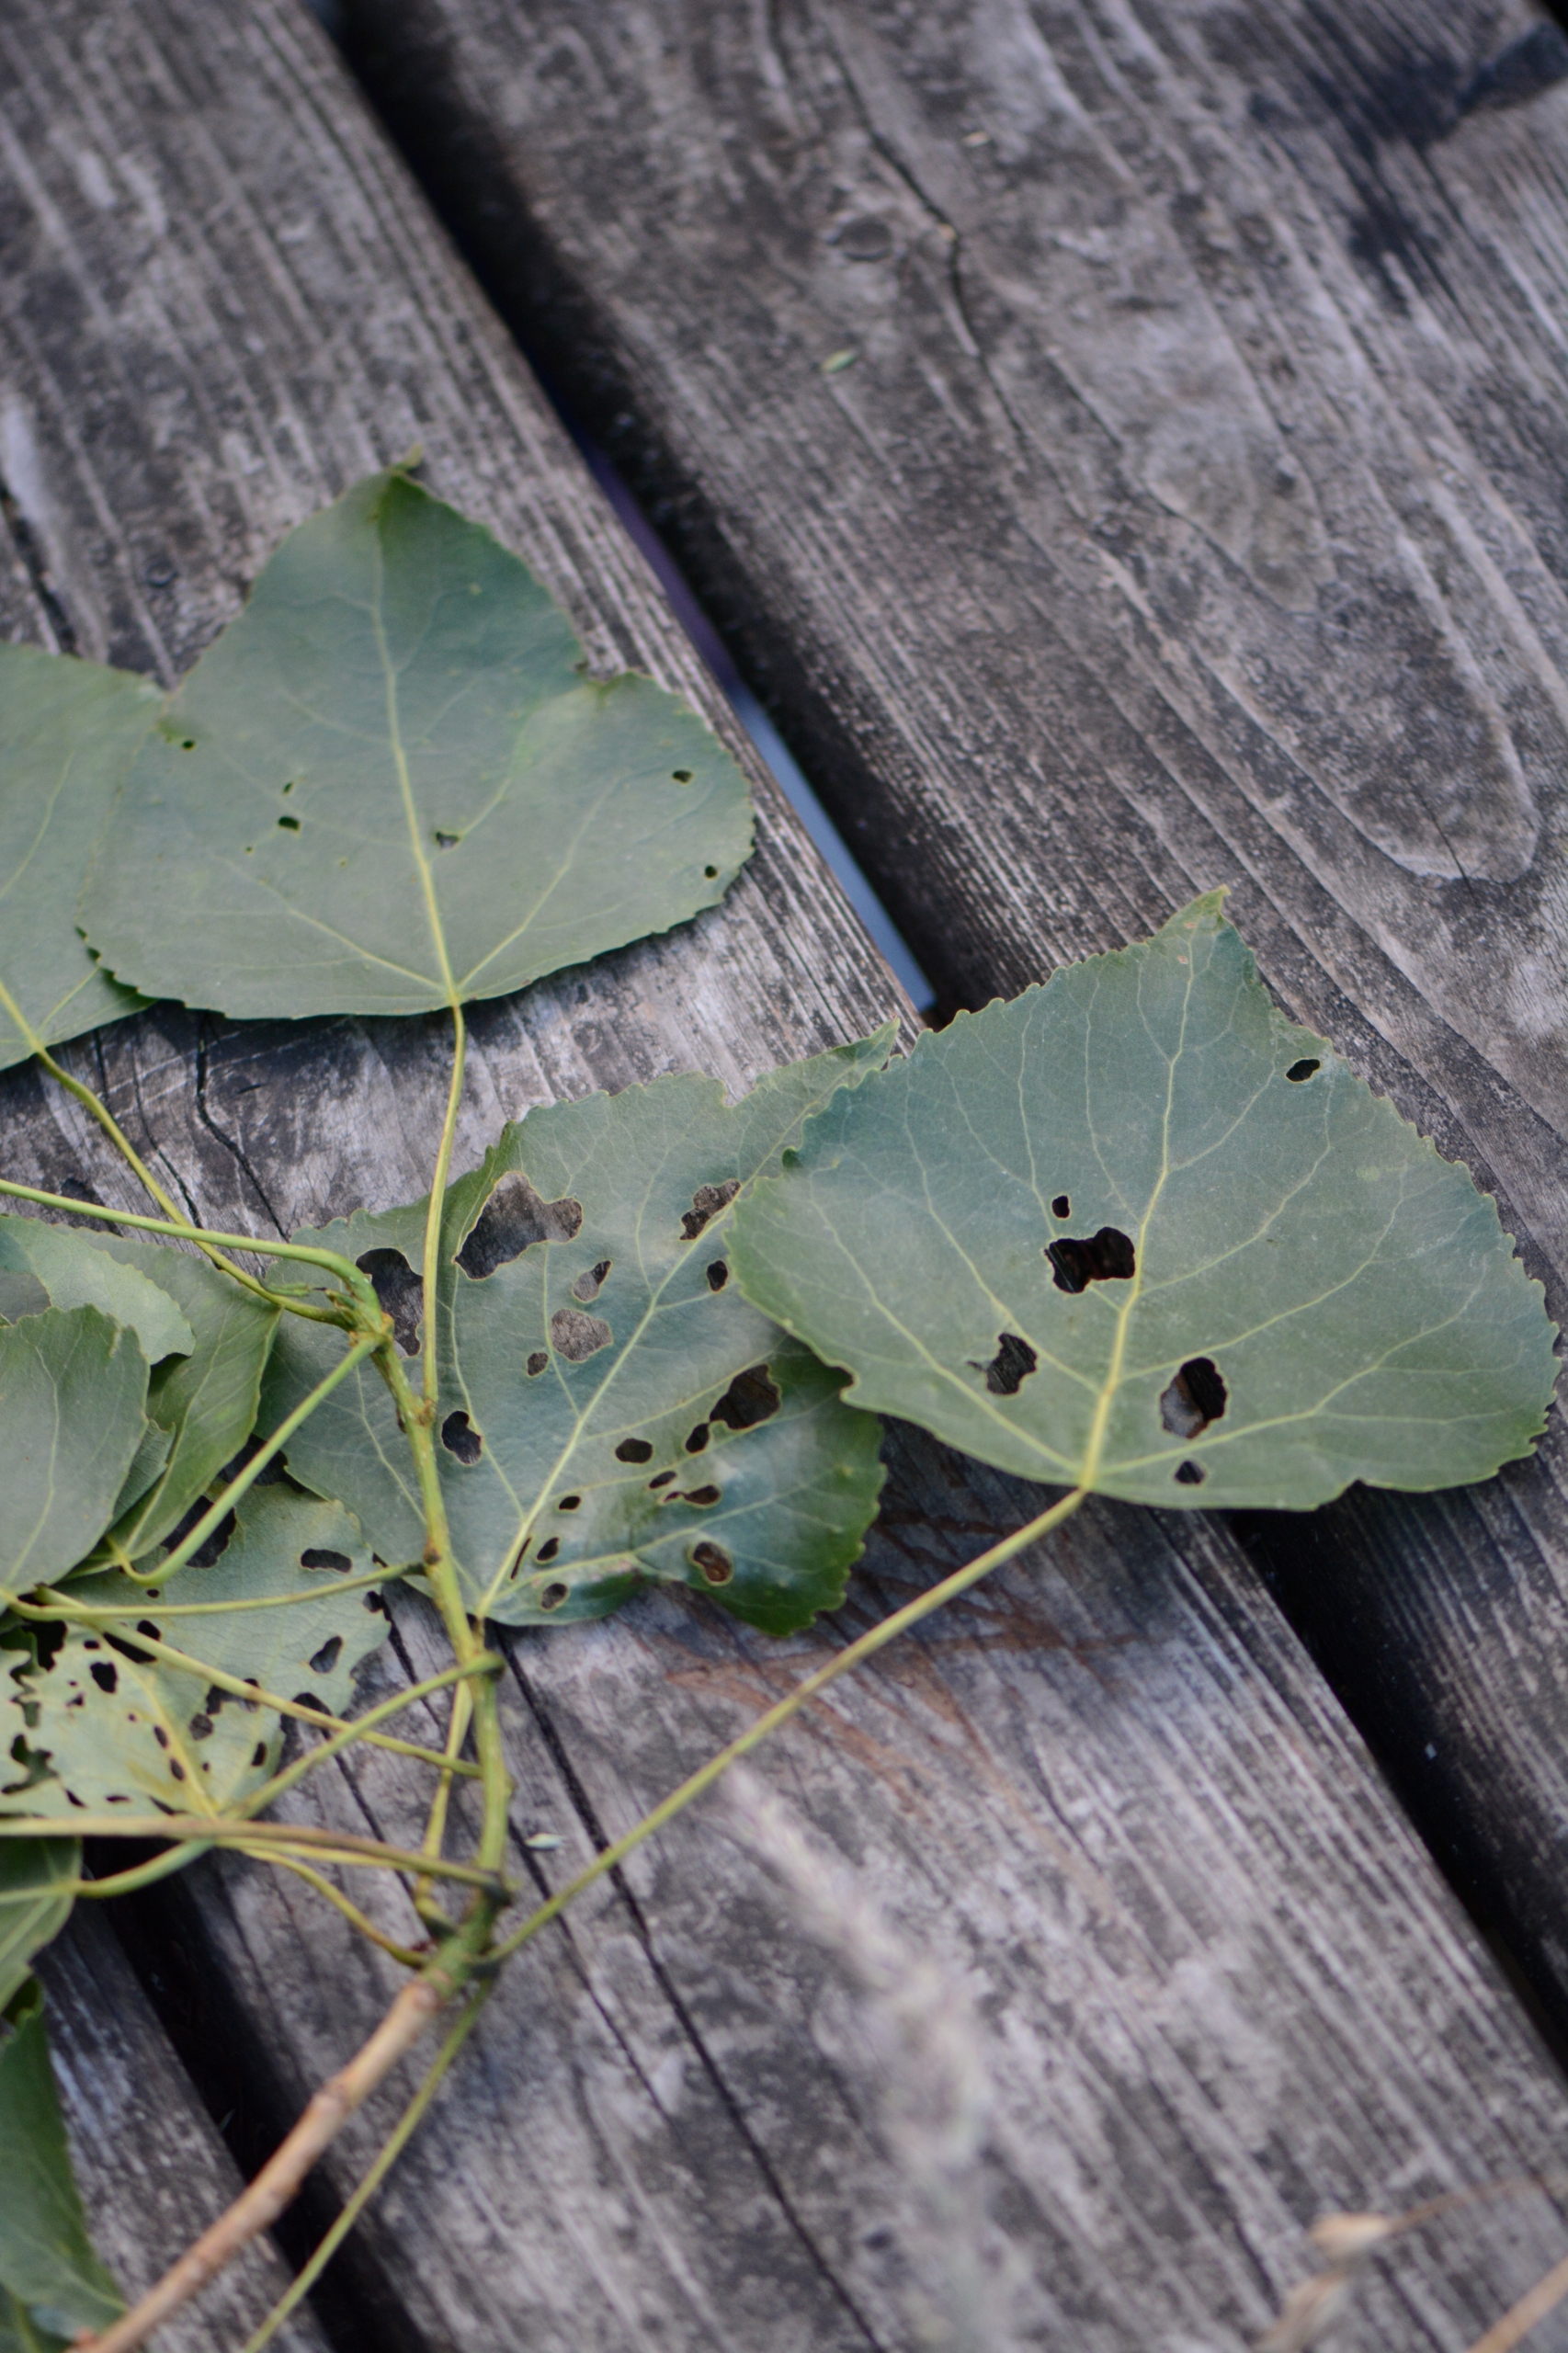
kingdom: Plantae
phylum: Tracheophyta
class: Magnoliopsida
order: Malpighiales
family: Salicaceae
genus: Populus
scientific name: Populus canadensis
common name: Canadisk poppel
